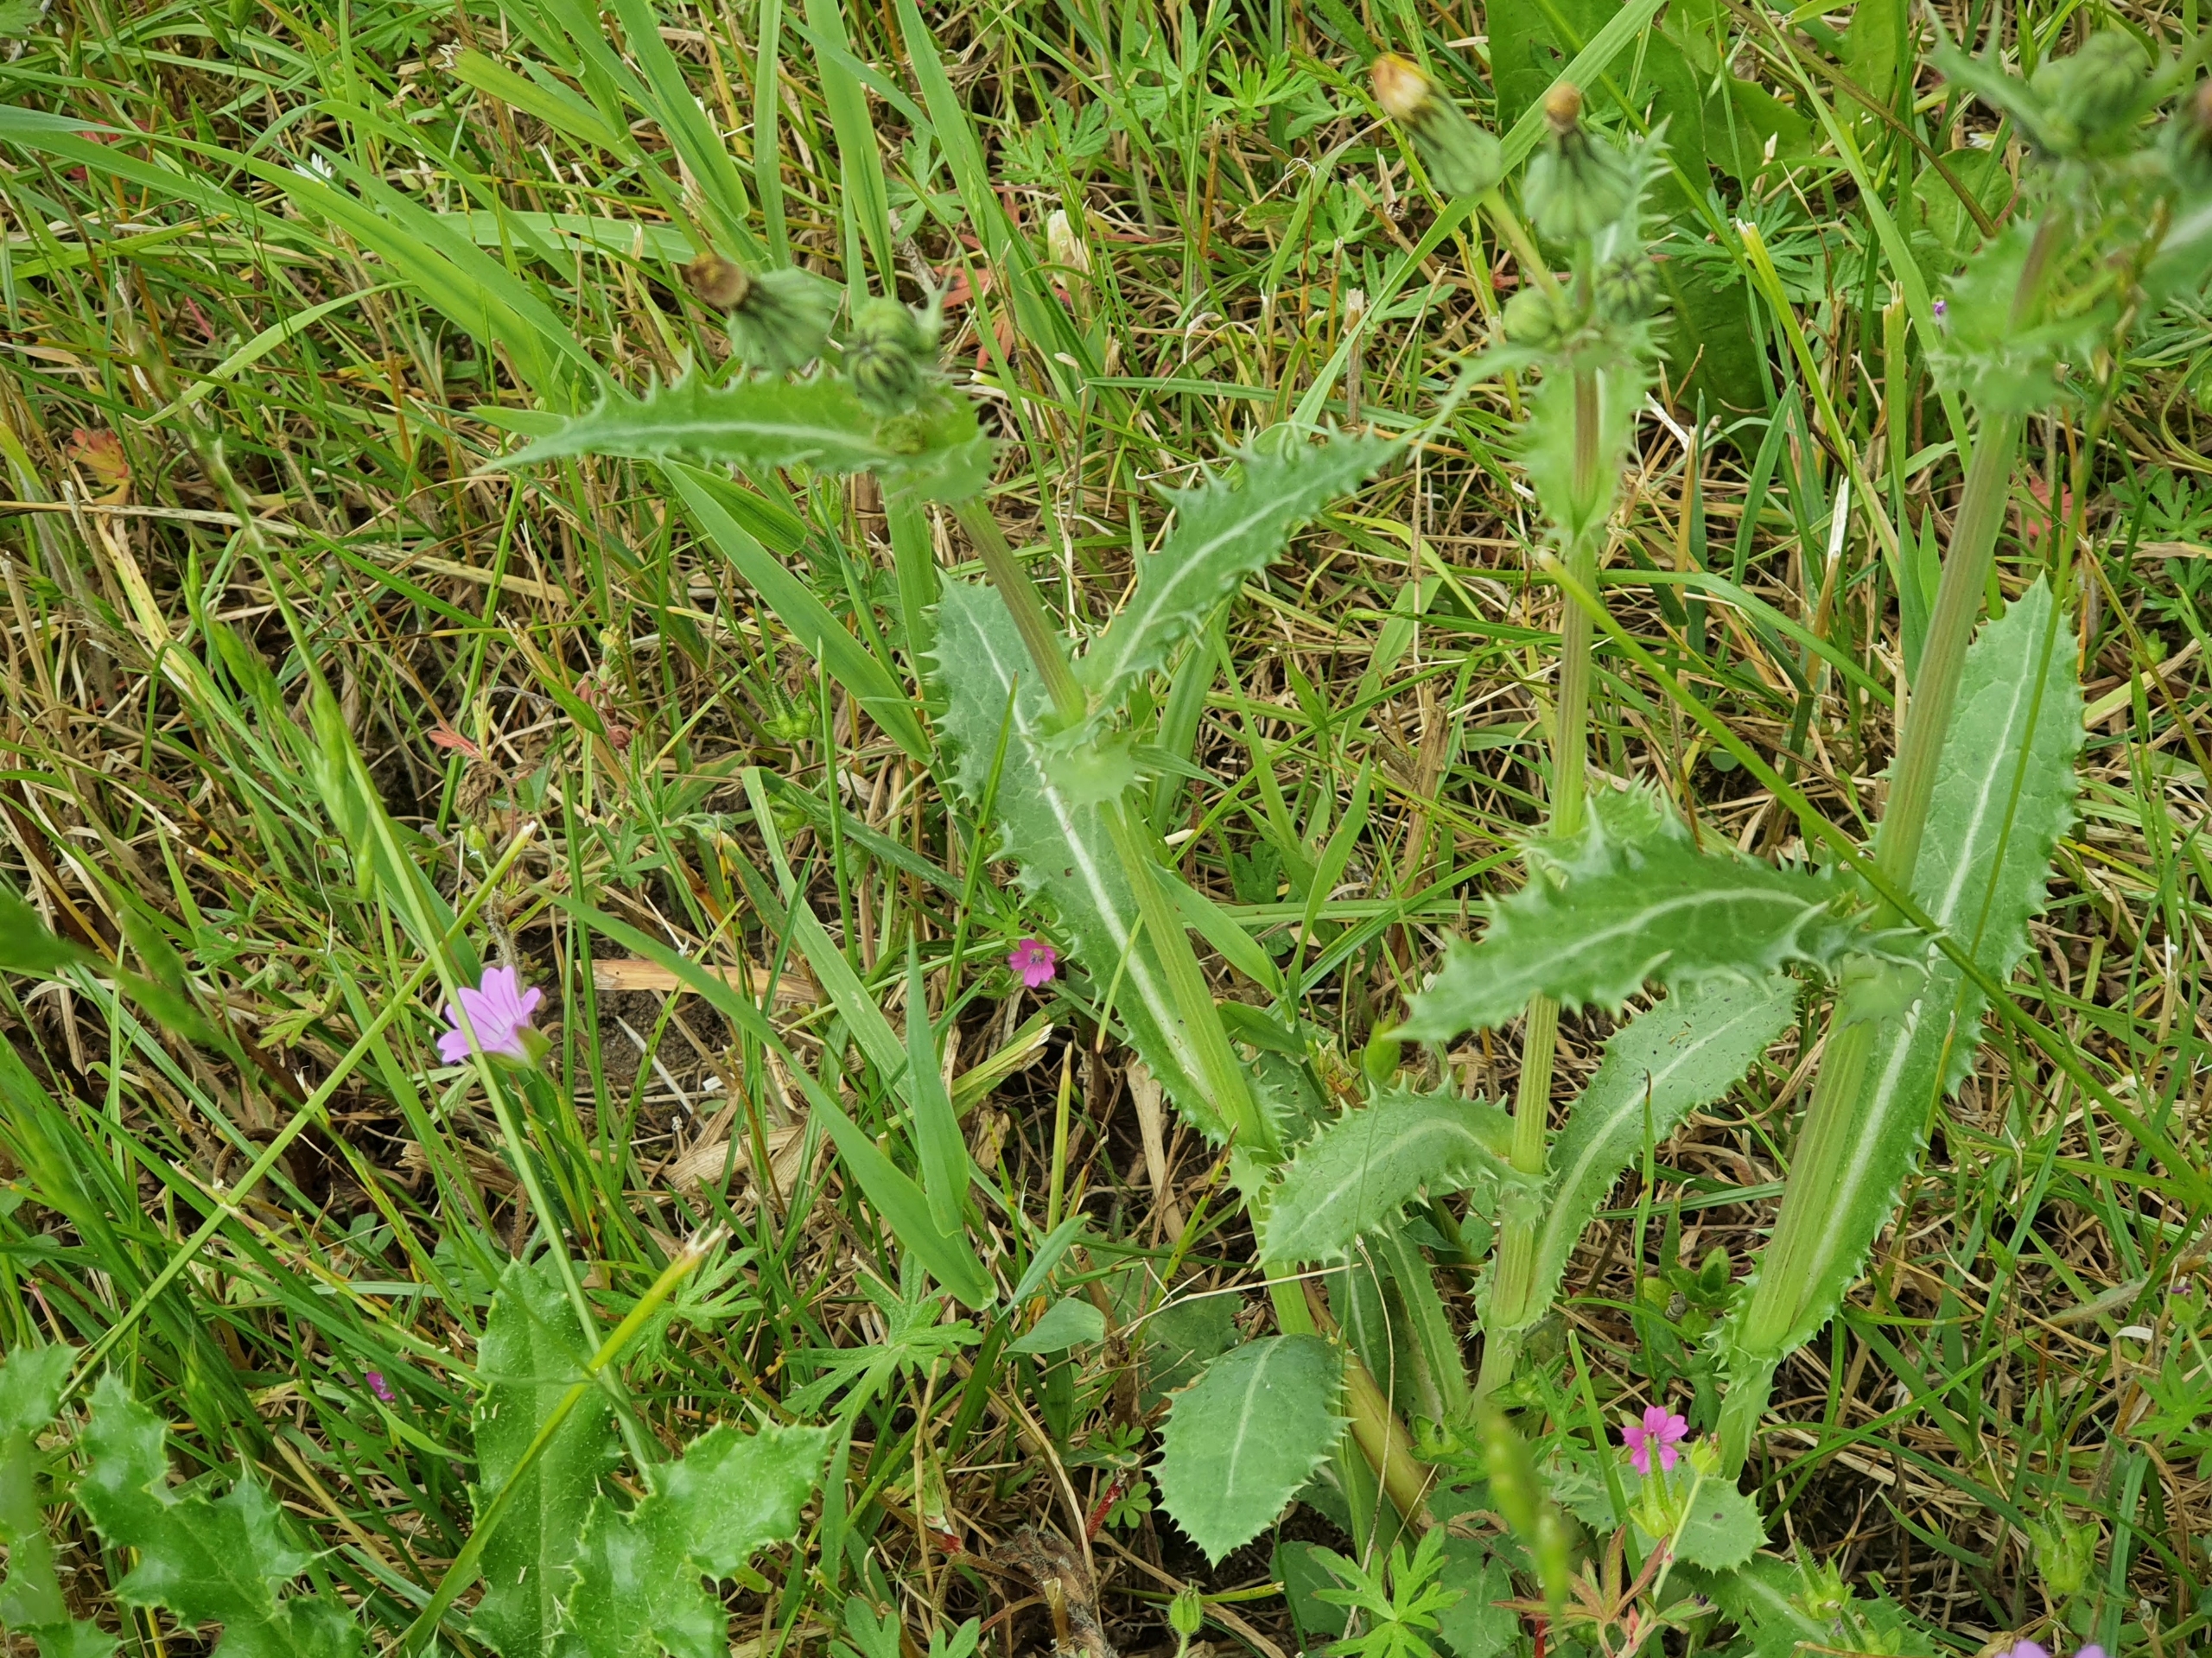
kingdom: Plantae
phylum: Tracheophyta
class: Magnoliopsida
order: Asterales
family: Asteraceae
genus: Sonchus
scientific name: Sonchus asper
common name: Ru svinemælk
